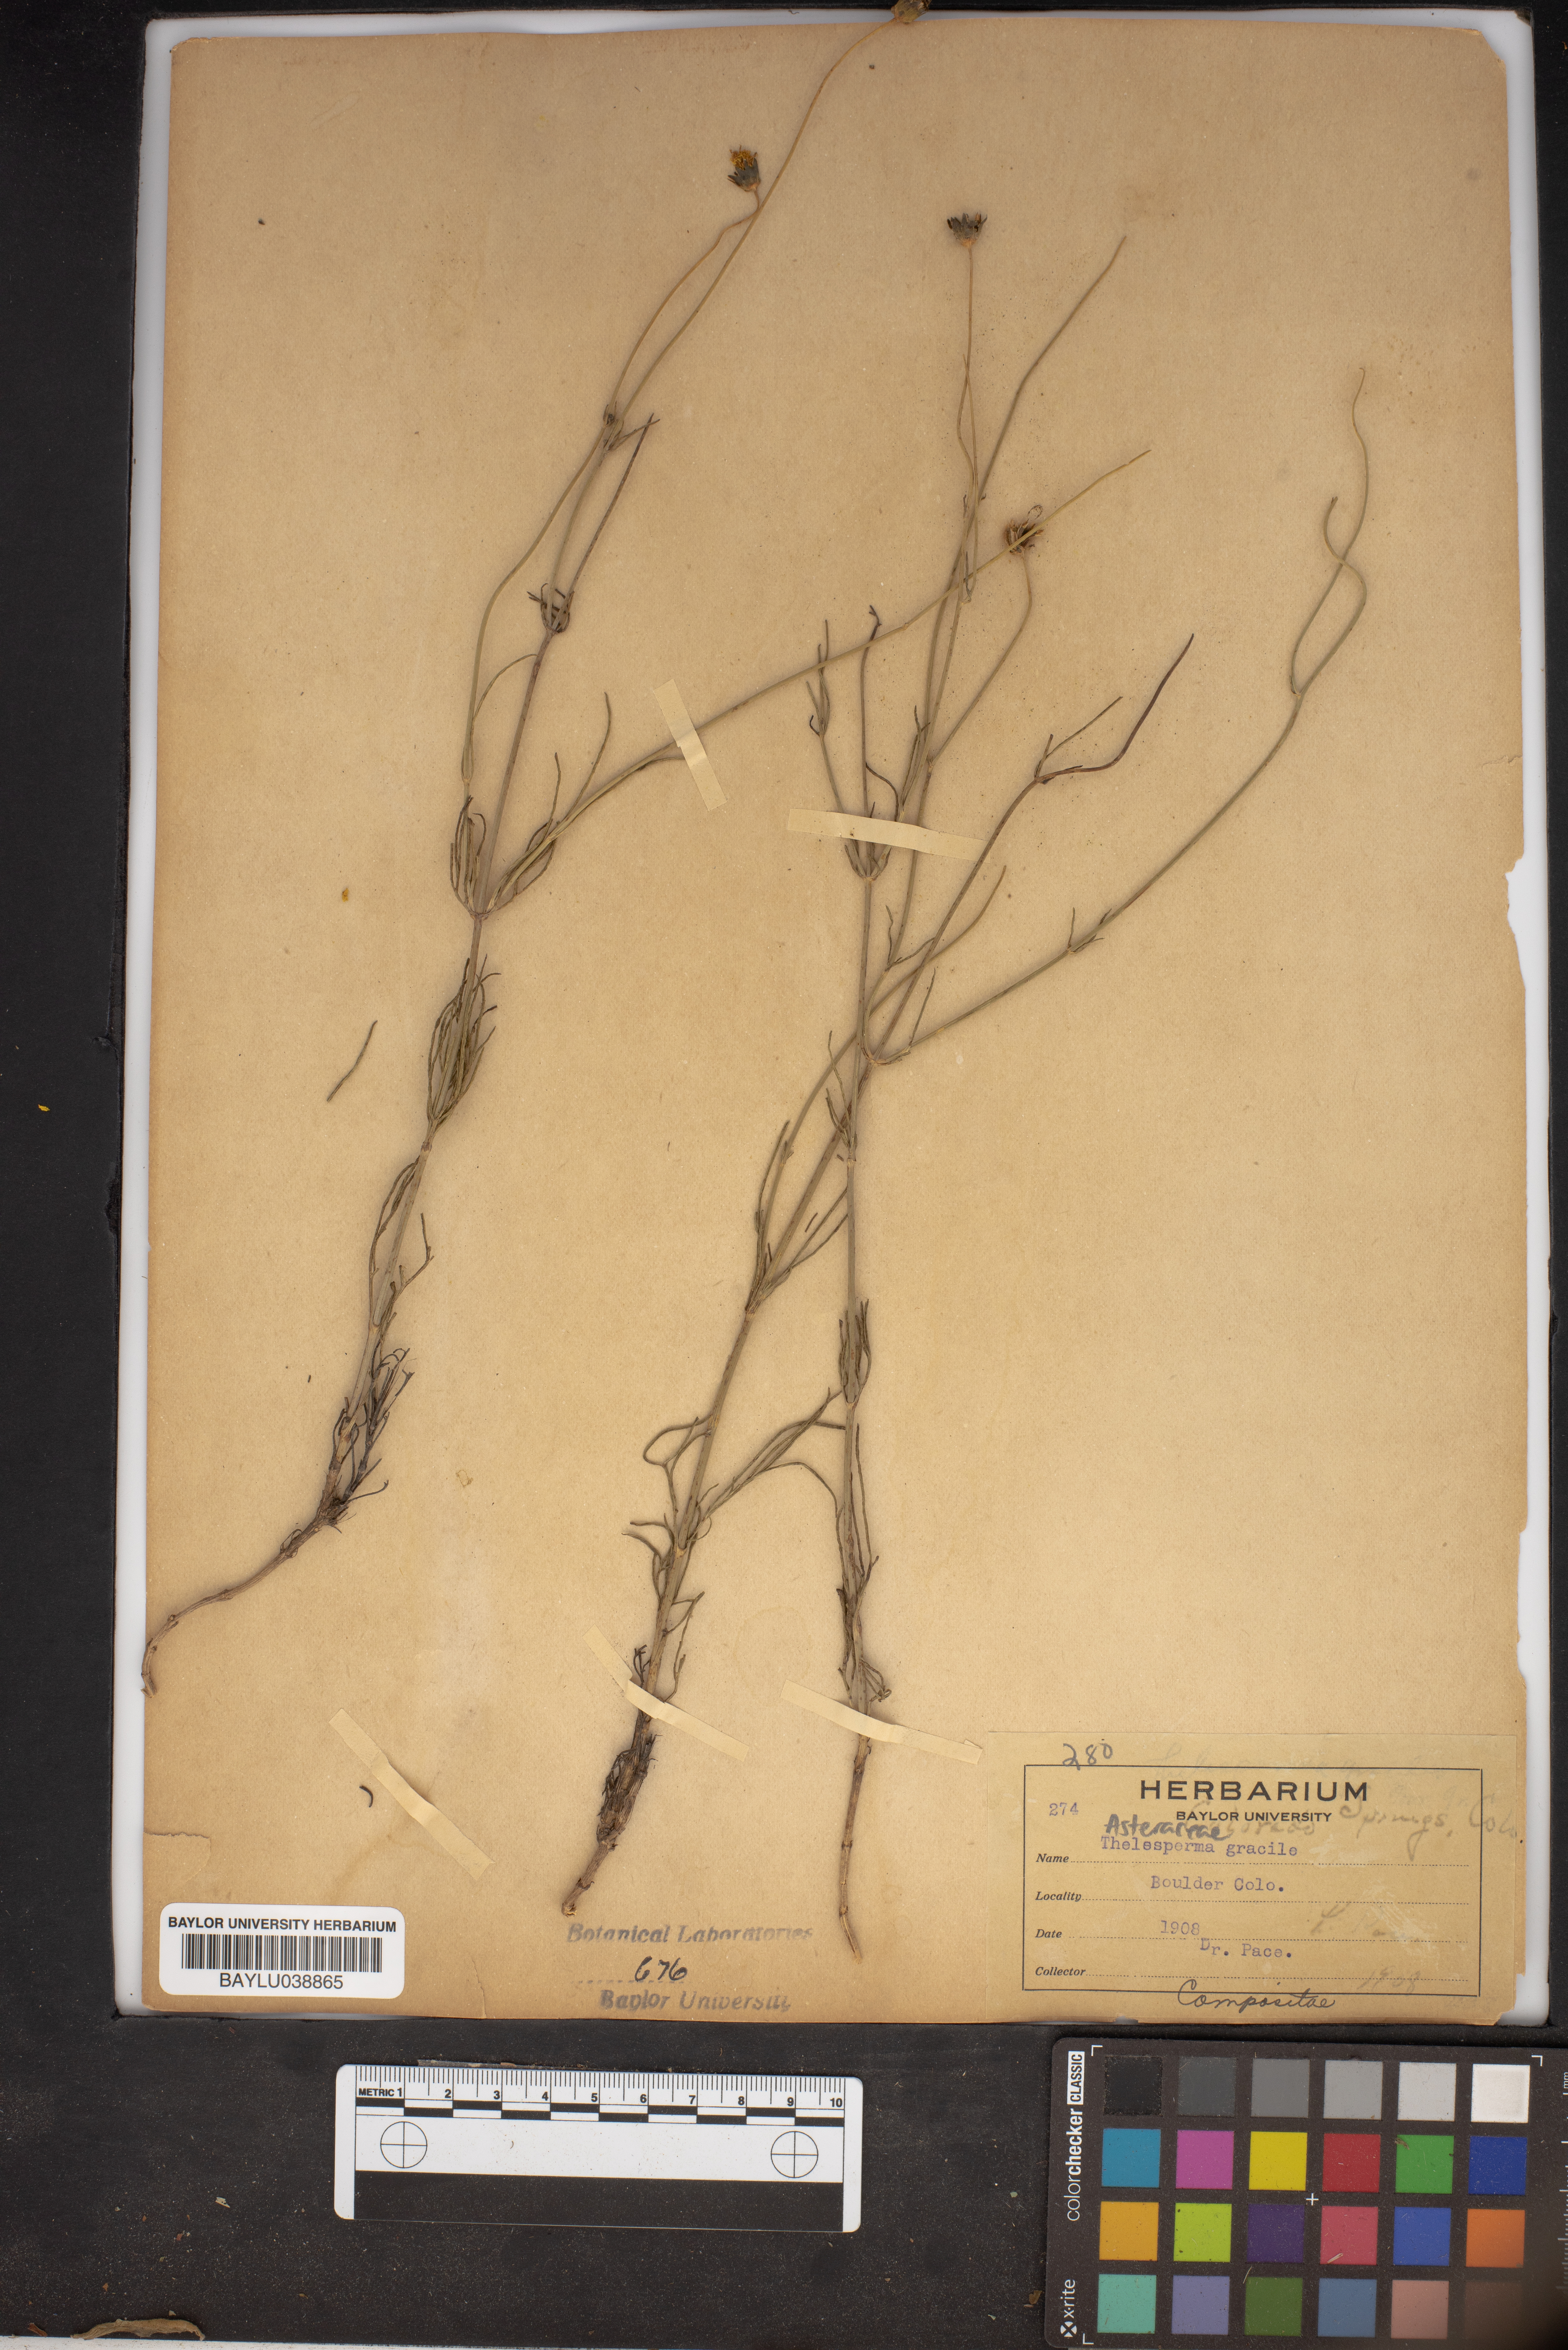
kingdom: Plantae
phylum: Tracheophyta
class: Magnoliopsida
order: Asterales
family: Asteraceae
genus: Thelesperma
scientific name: Thelesperma megapotamicum
